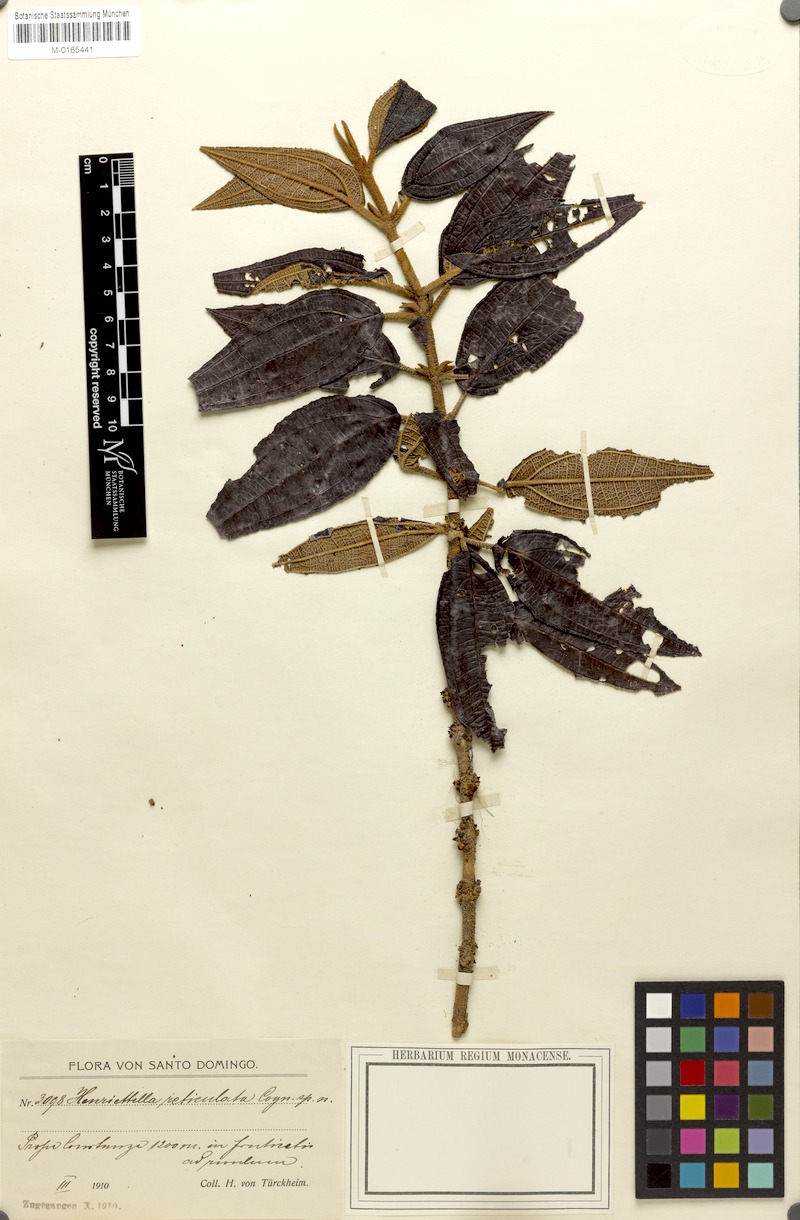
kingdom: Plantae
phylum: Tracheophyta
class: Magnoliopsida
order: Myrtales
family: Melastomataceae
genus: Miconia
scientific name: Miconia reticulatovenosa
